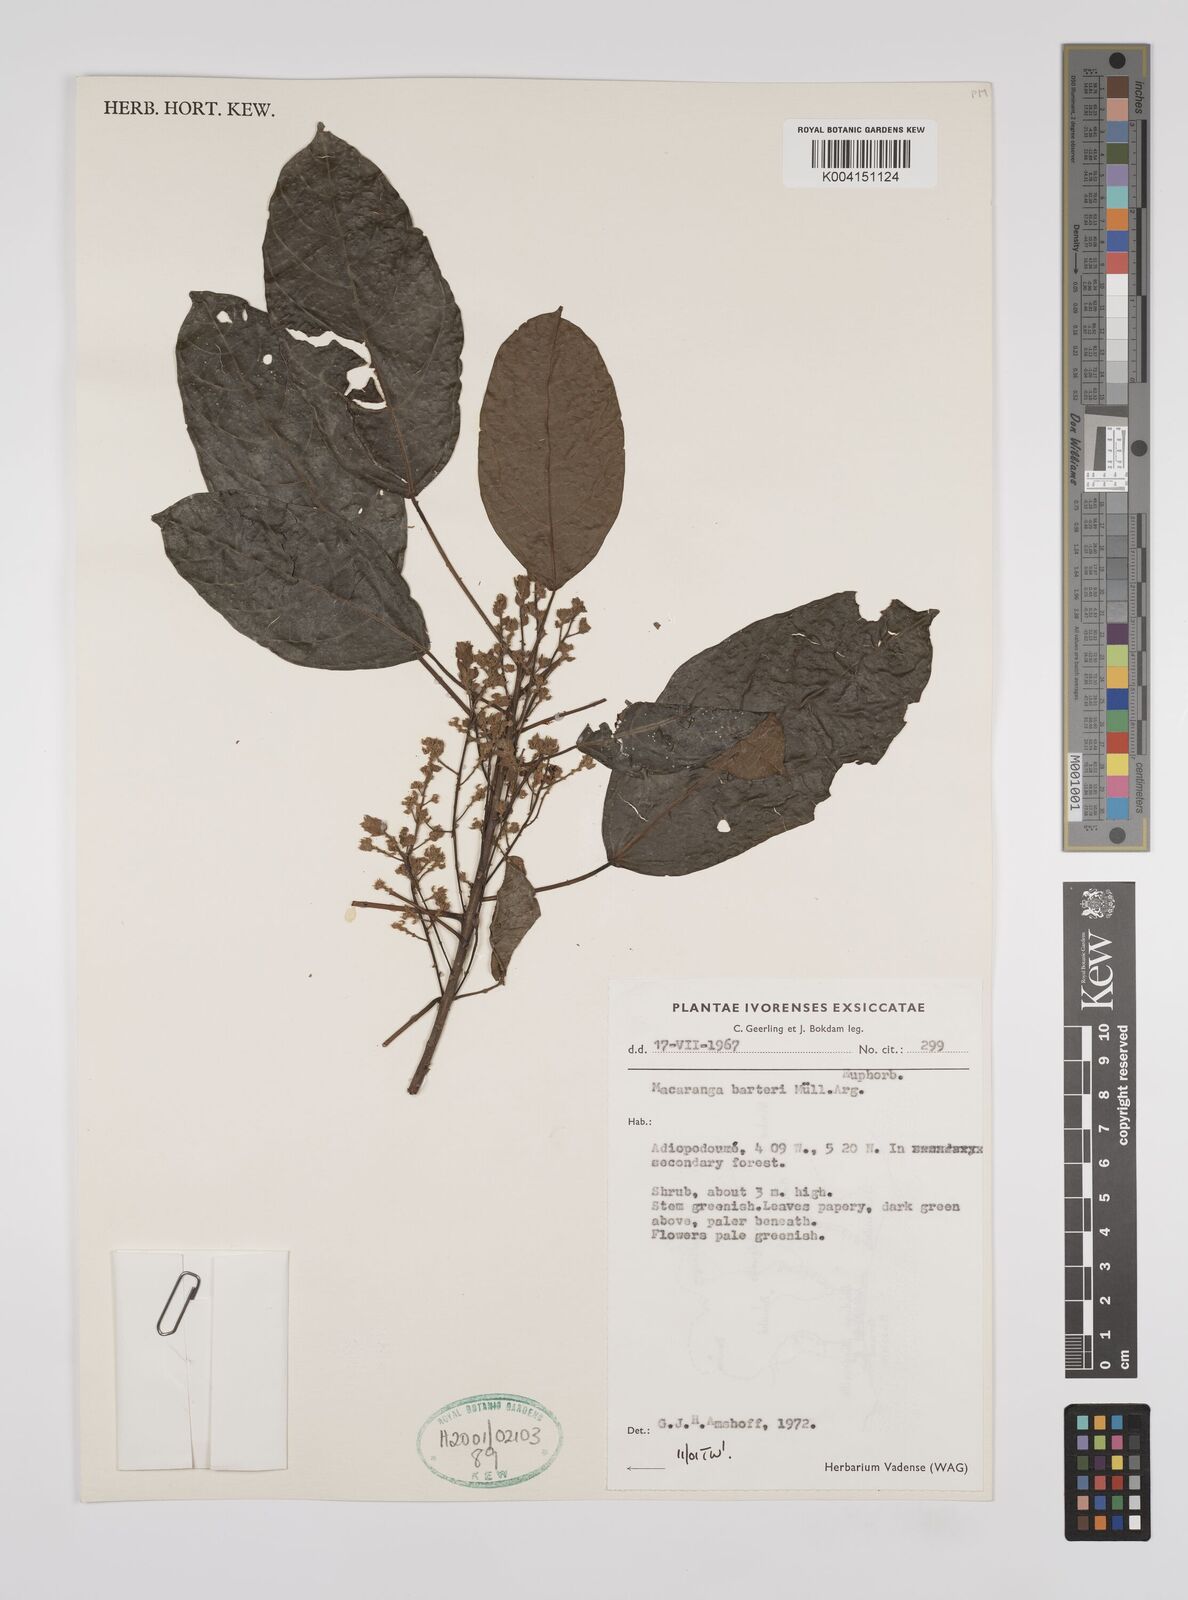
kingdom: Plantae
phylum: Tracheophyta
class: Magnoliopsida
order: Malpighiales
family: Euphorbiaceae
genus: Macaranga
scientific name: Macaranga barteri
